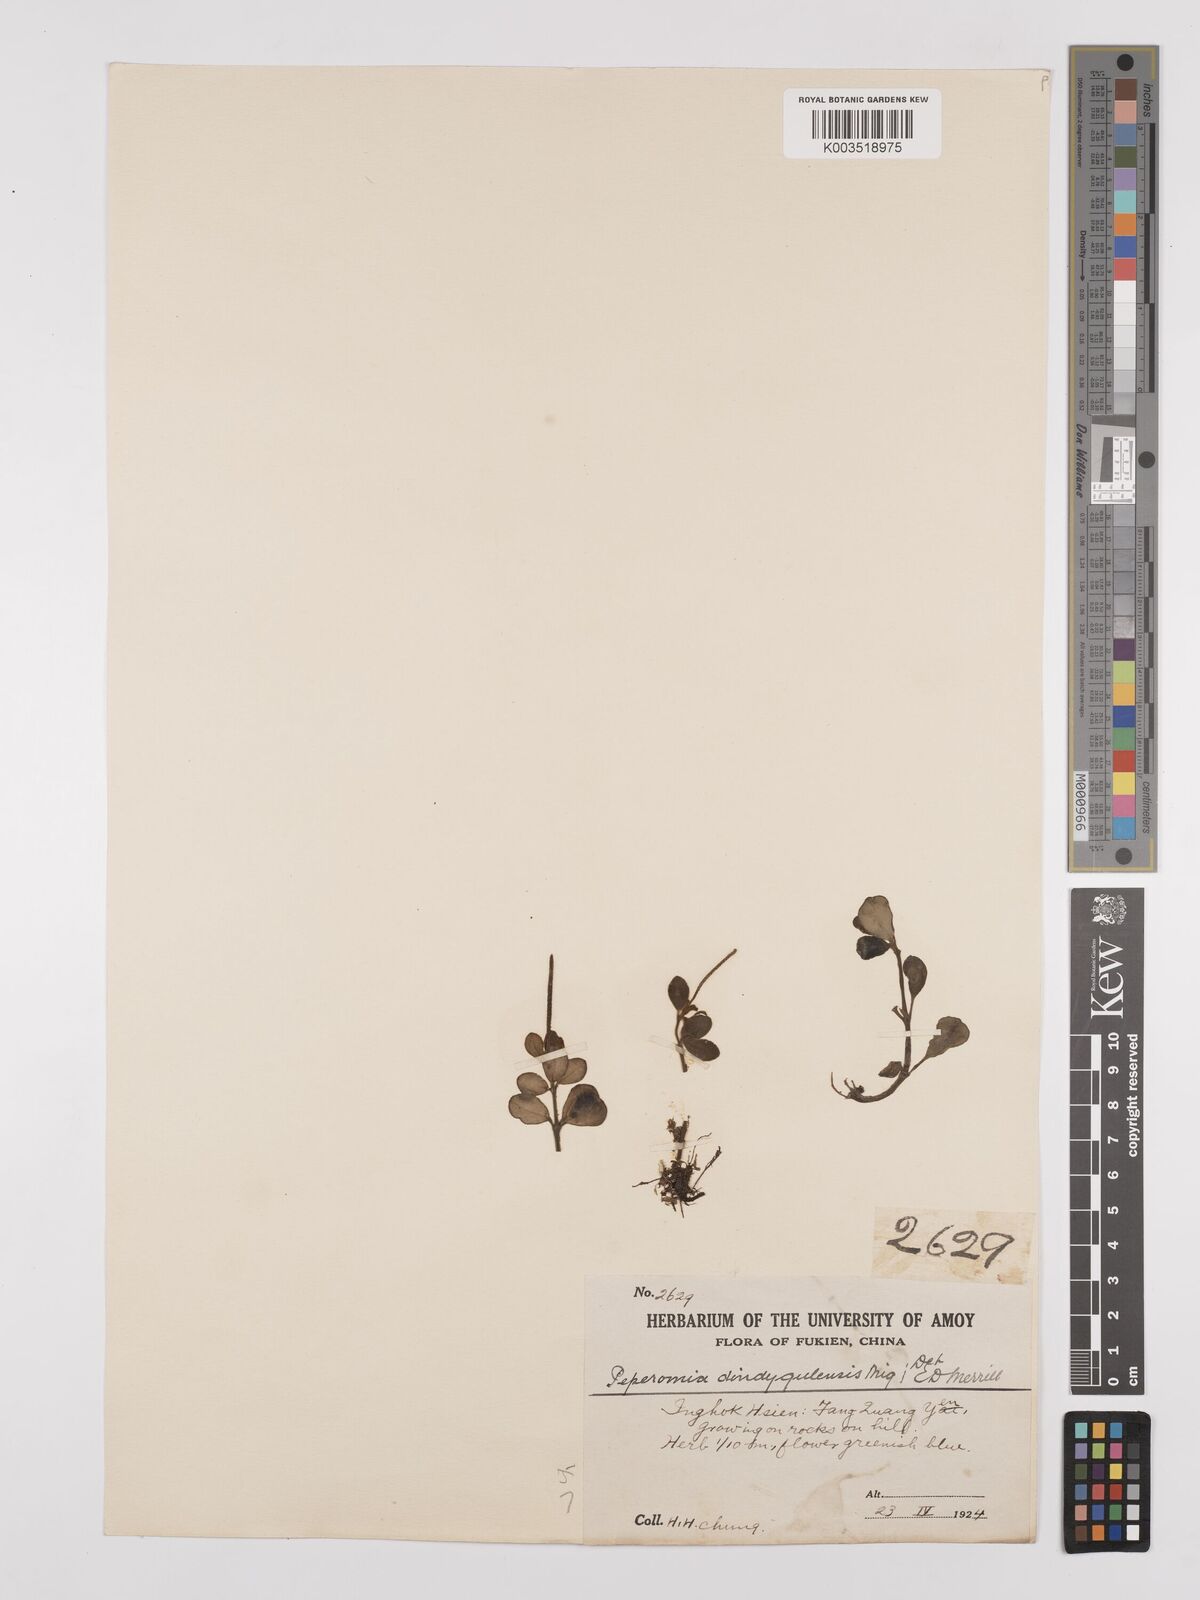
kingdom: Plantae
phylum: Tracheophyta
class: Magnoliopsida
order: Piperales
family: Piperaceae
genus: Peperomia
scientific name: Peperomia leptostachya
